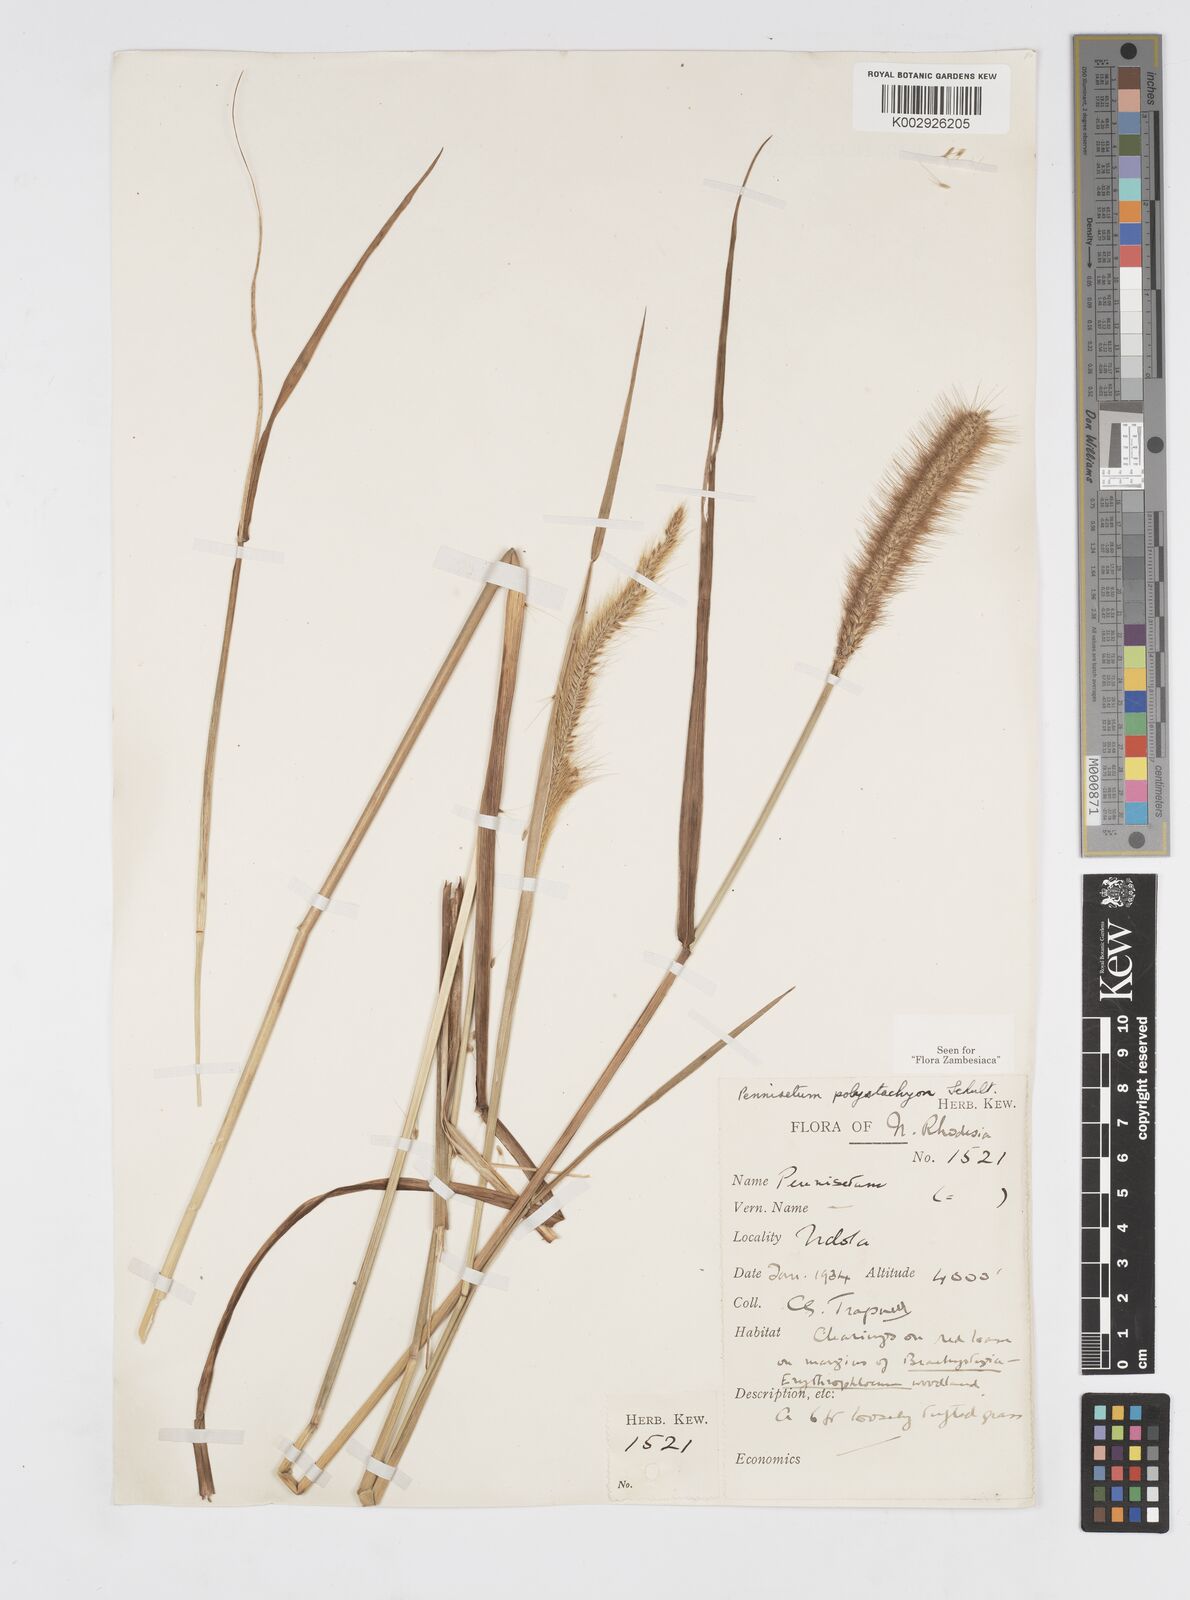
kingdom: Plantae
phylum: Tracheophyta
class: Liliopsida
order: Poales
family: Poaceae
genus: Setaria
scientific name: Setaria parviflora
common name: Knotroot bristle-grass
